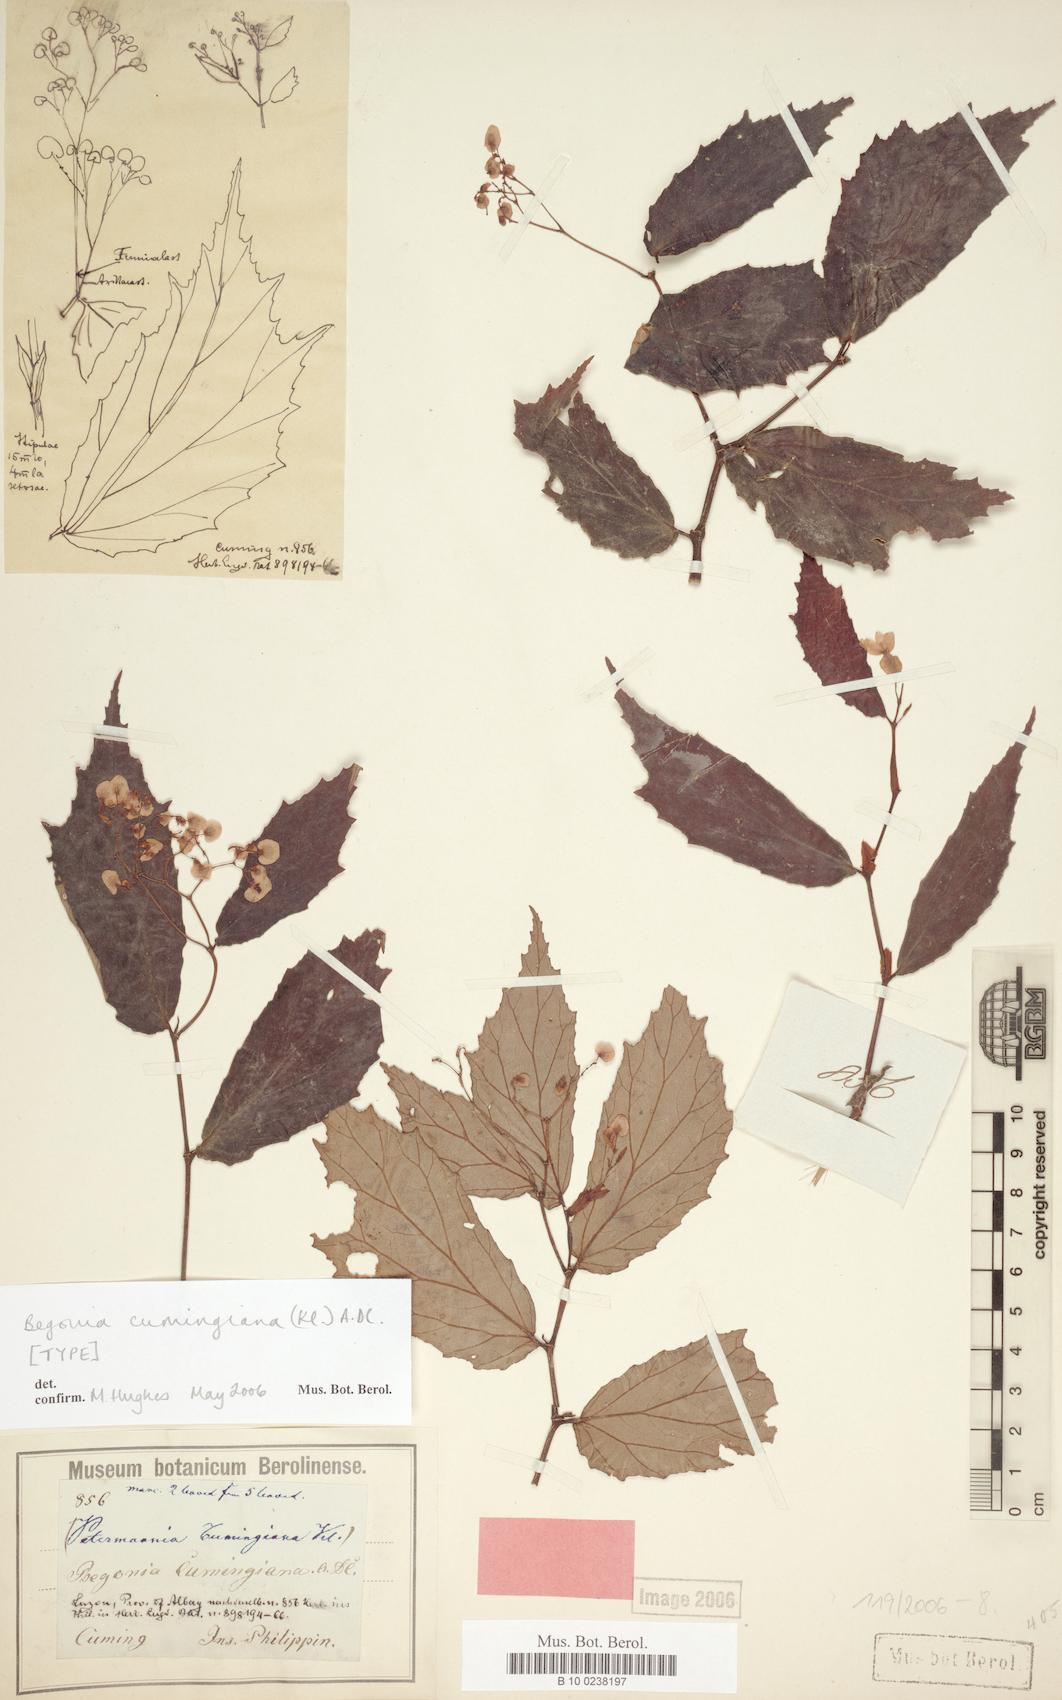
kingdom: Plantae
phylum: Tracheophyta
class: Magnoliopsida
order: Cucurbitales
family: Begoniaceae
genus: Begonia
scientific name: Begonia cumingiana
